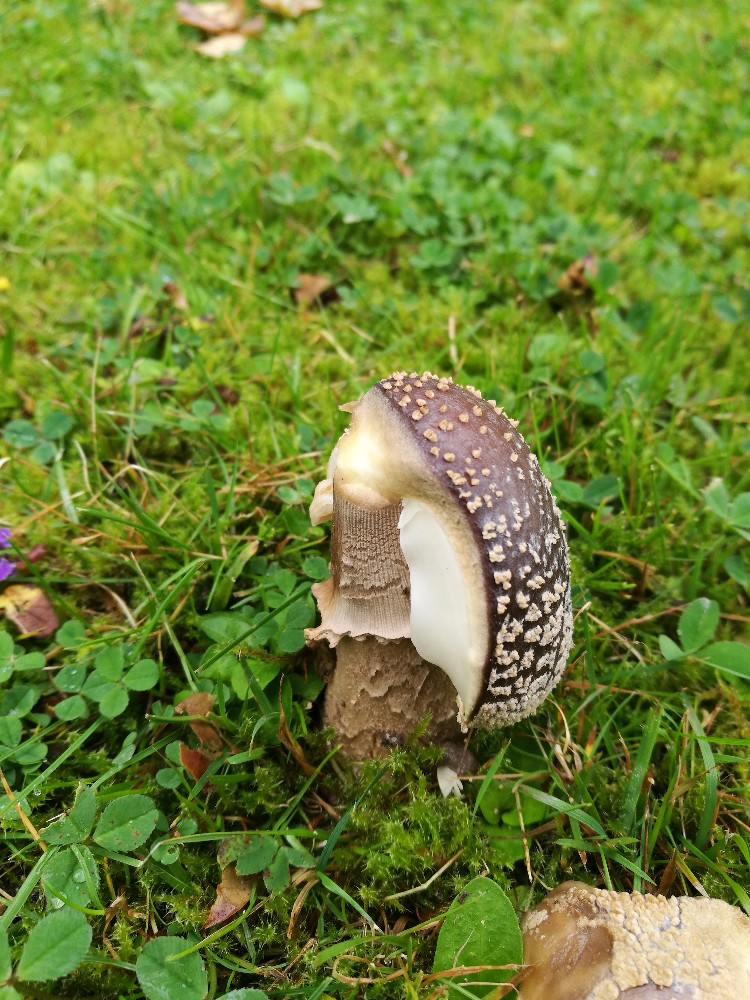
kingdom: Fungi
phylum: Basidiomycota
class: Agaricomycetes
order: Agaricales
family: Amanitaceae
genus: Amanita
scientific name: Amanita
